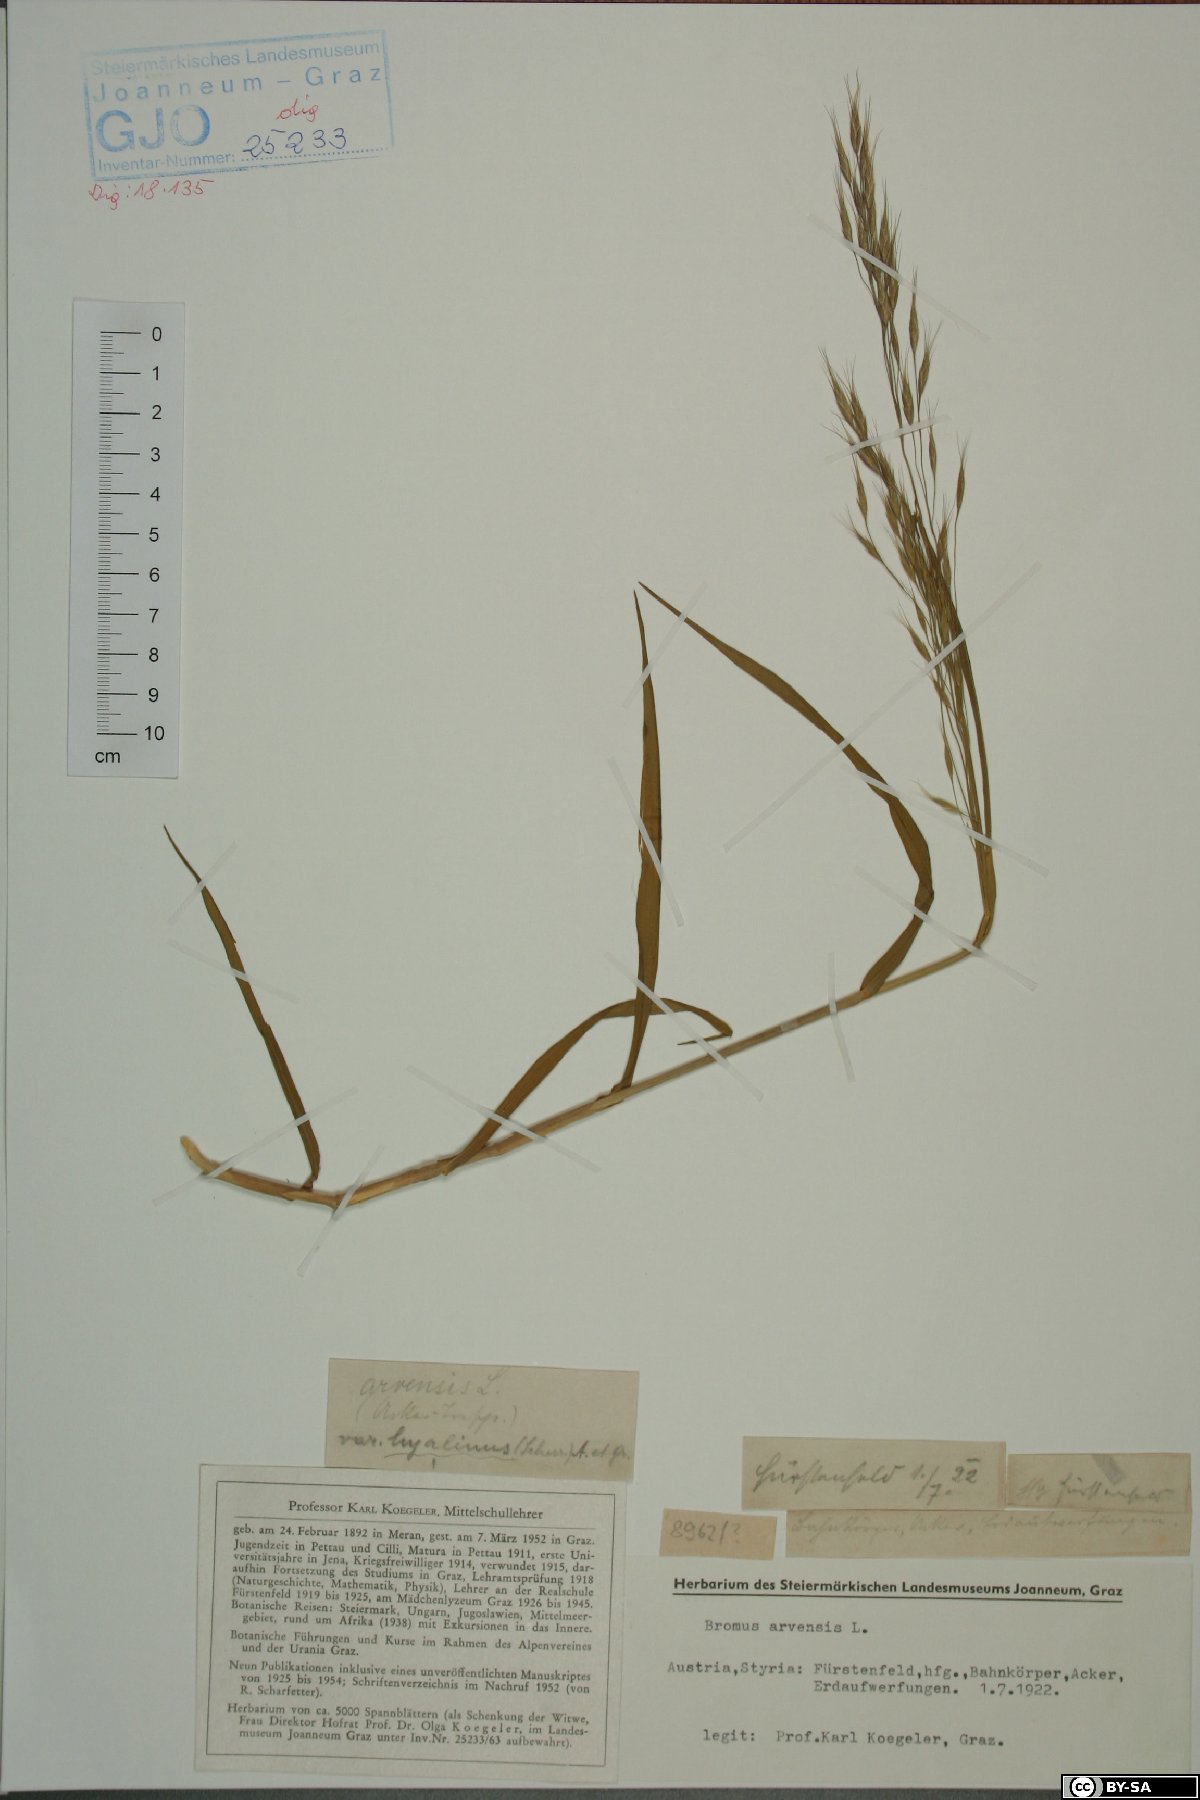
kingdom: Plantae
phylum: Tracheophyta
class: Liliopsida
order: Poales
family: Poaceae
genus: Bromus
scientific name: Bromus arvensis
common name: Field brome
